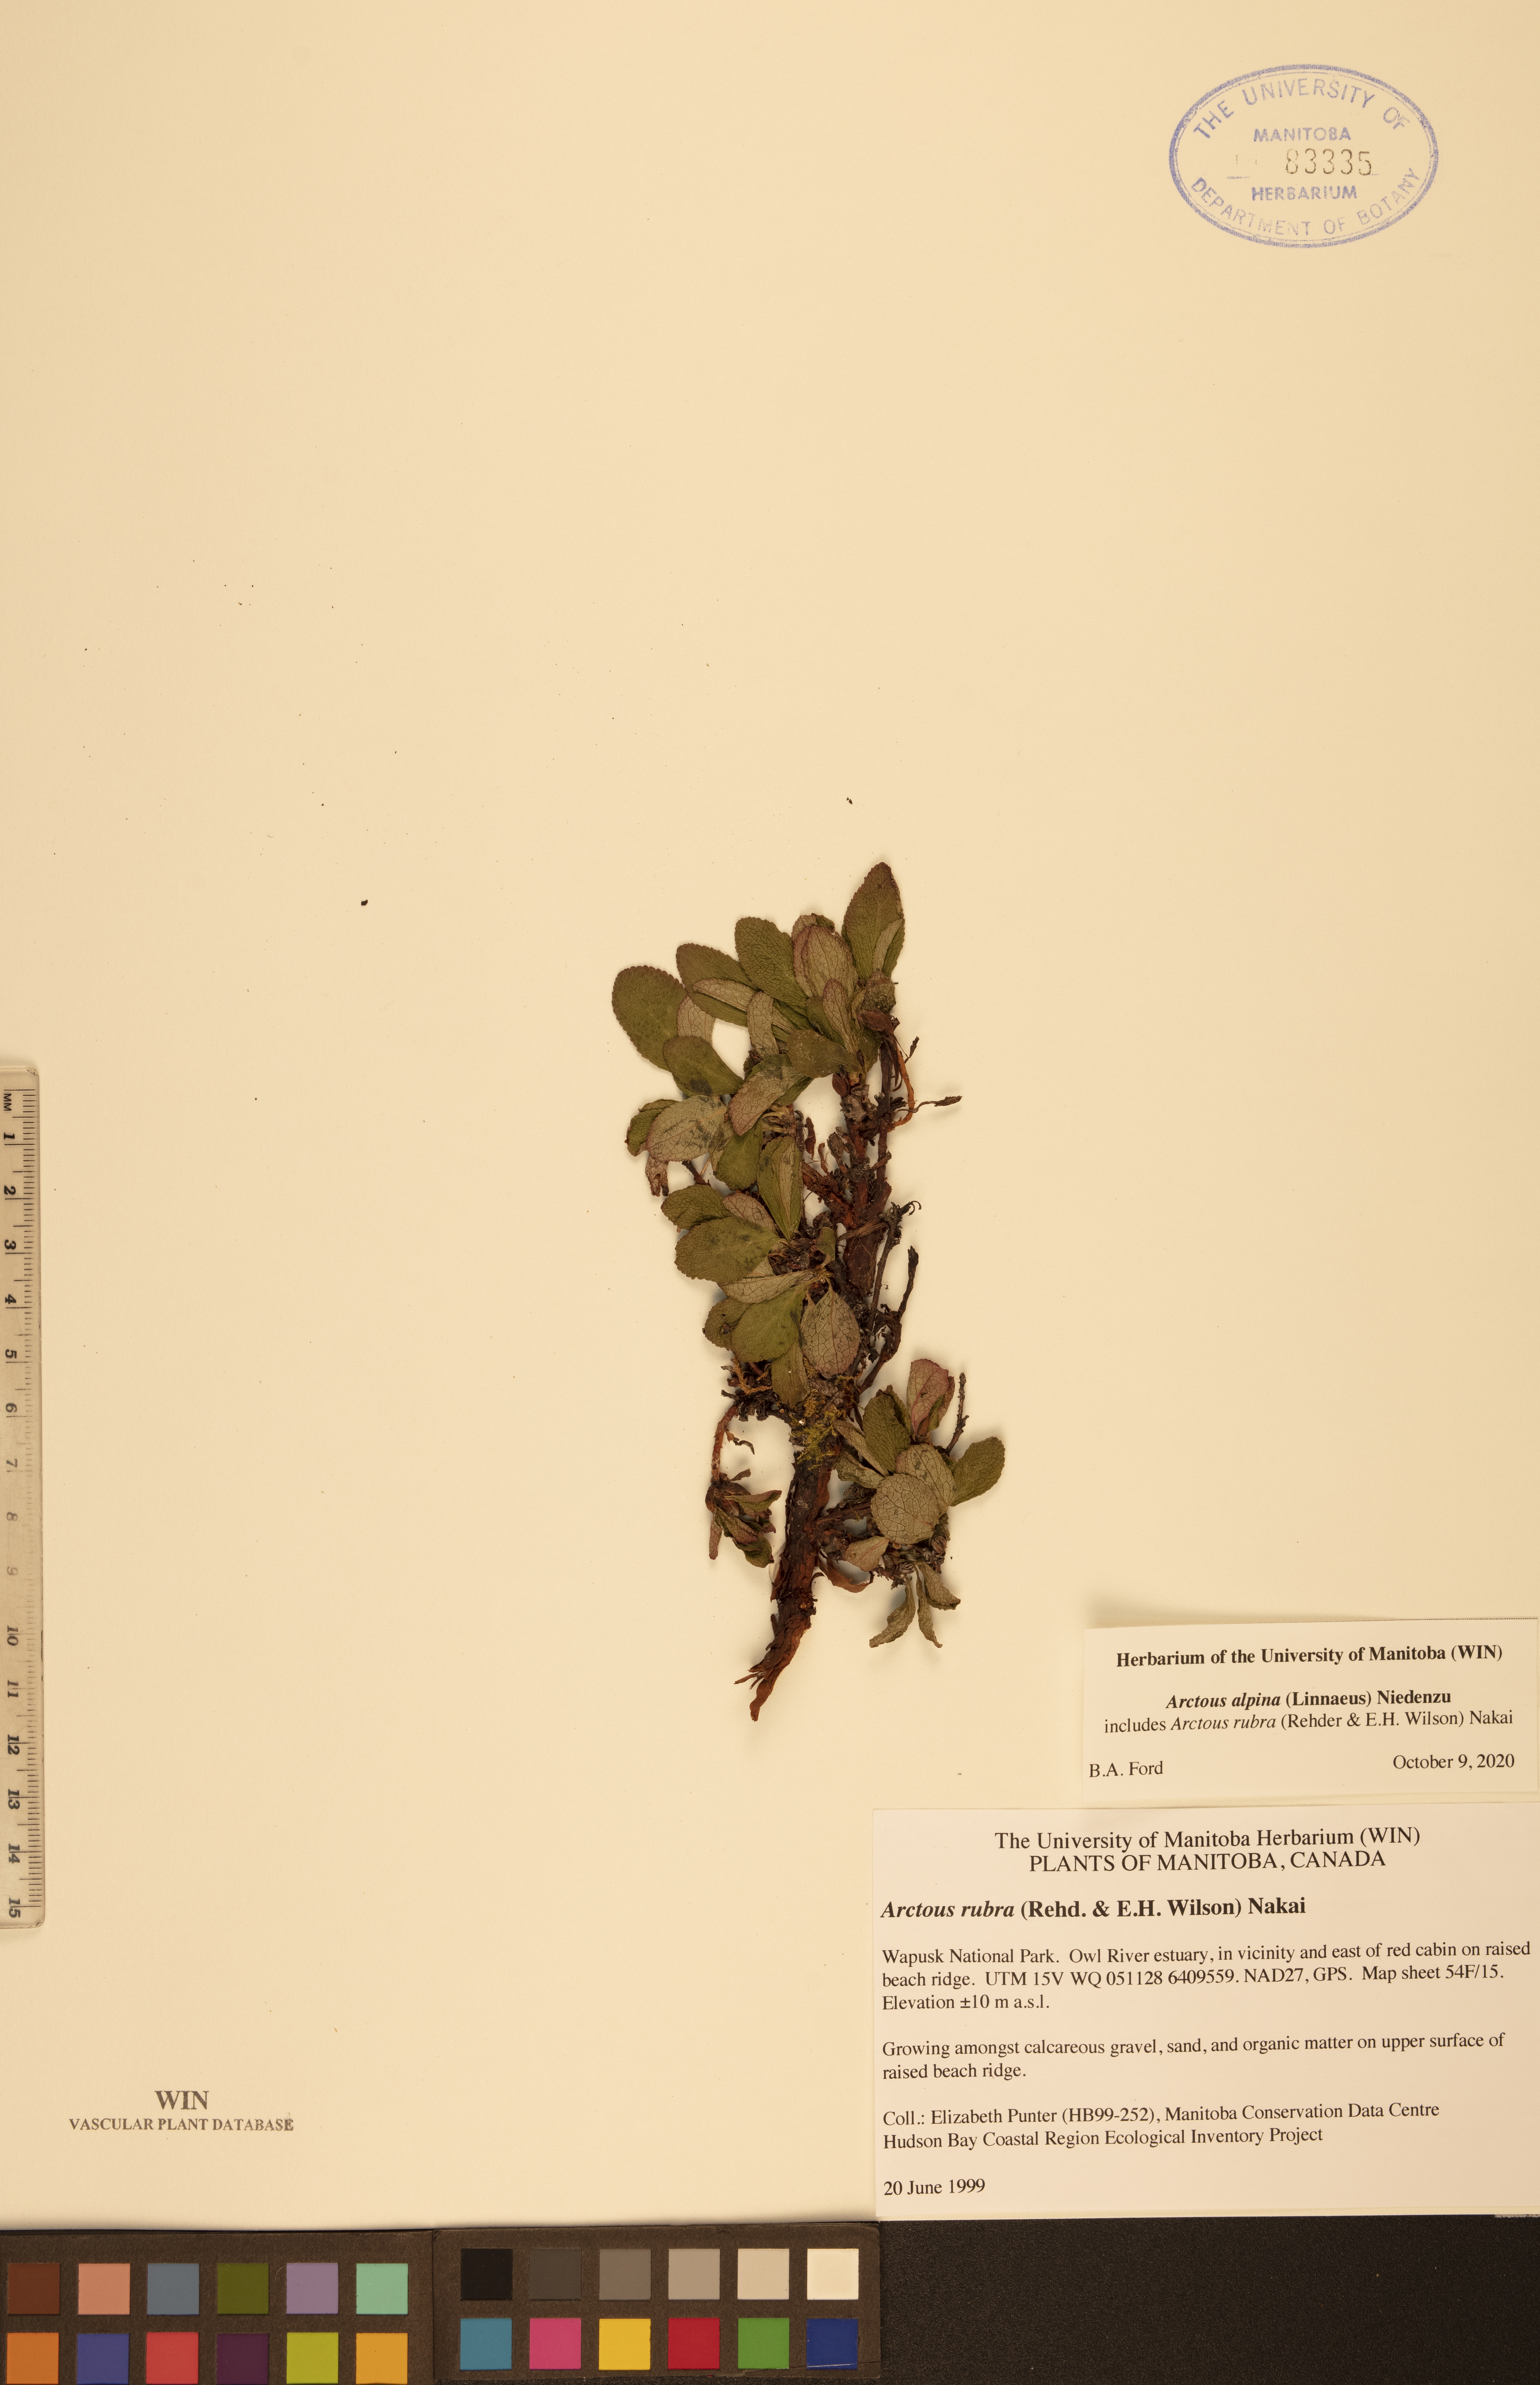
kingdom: Plantae
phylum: Tracheophyta
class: Magnoliopsida
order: Ericales
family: Ericaceae
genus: Arctostaphylos
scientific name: Arctostaphylos alpinus
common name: Alpine bearberry
